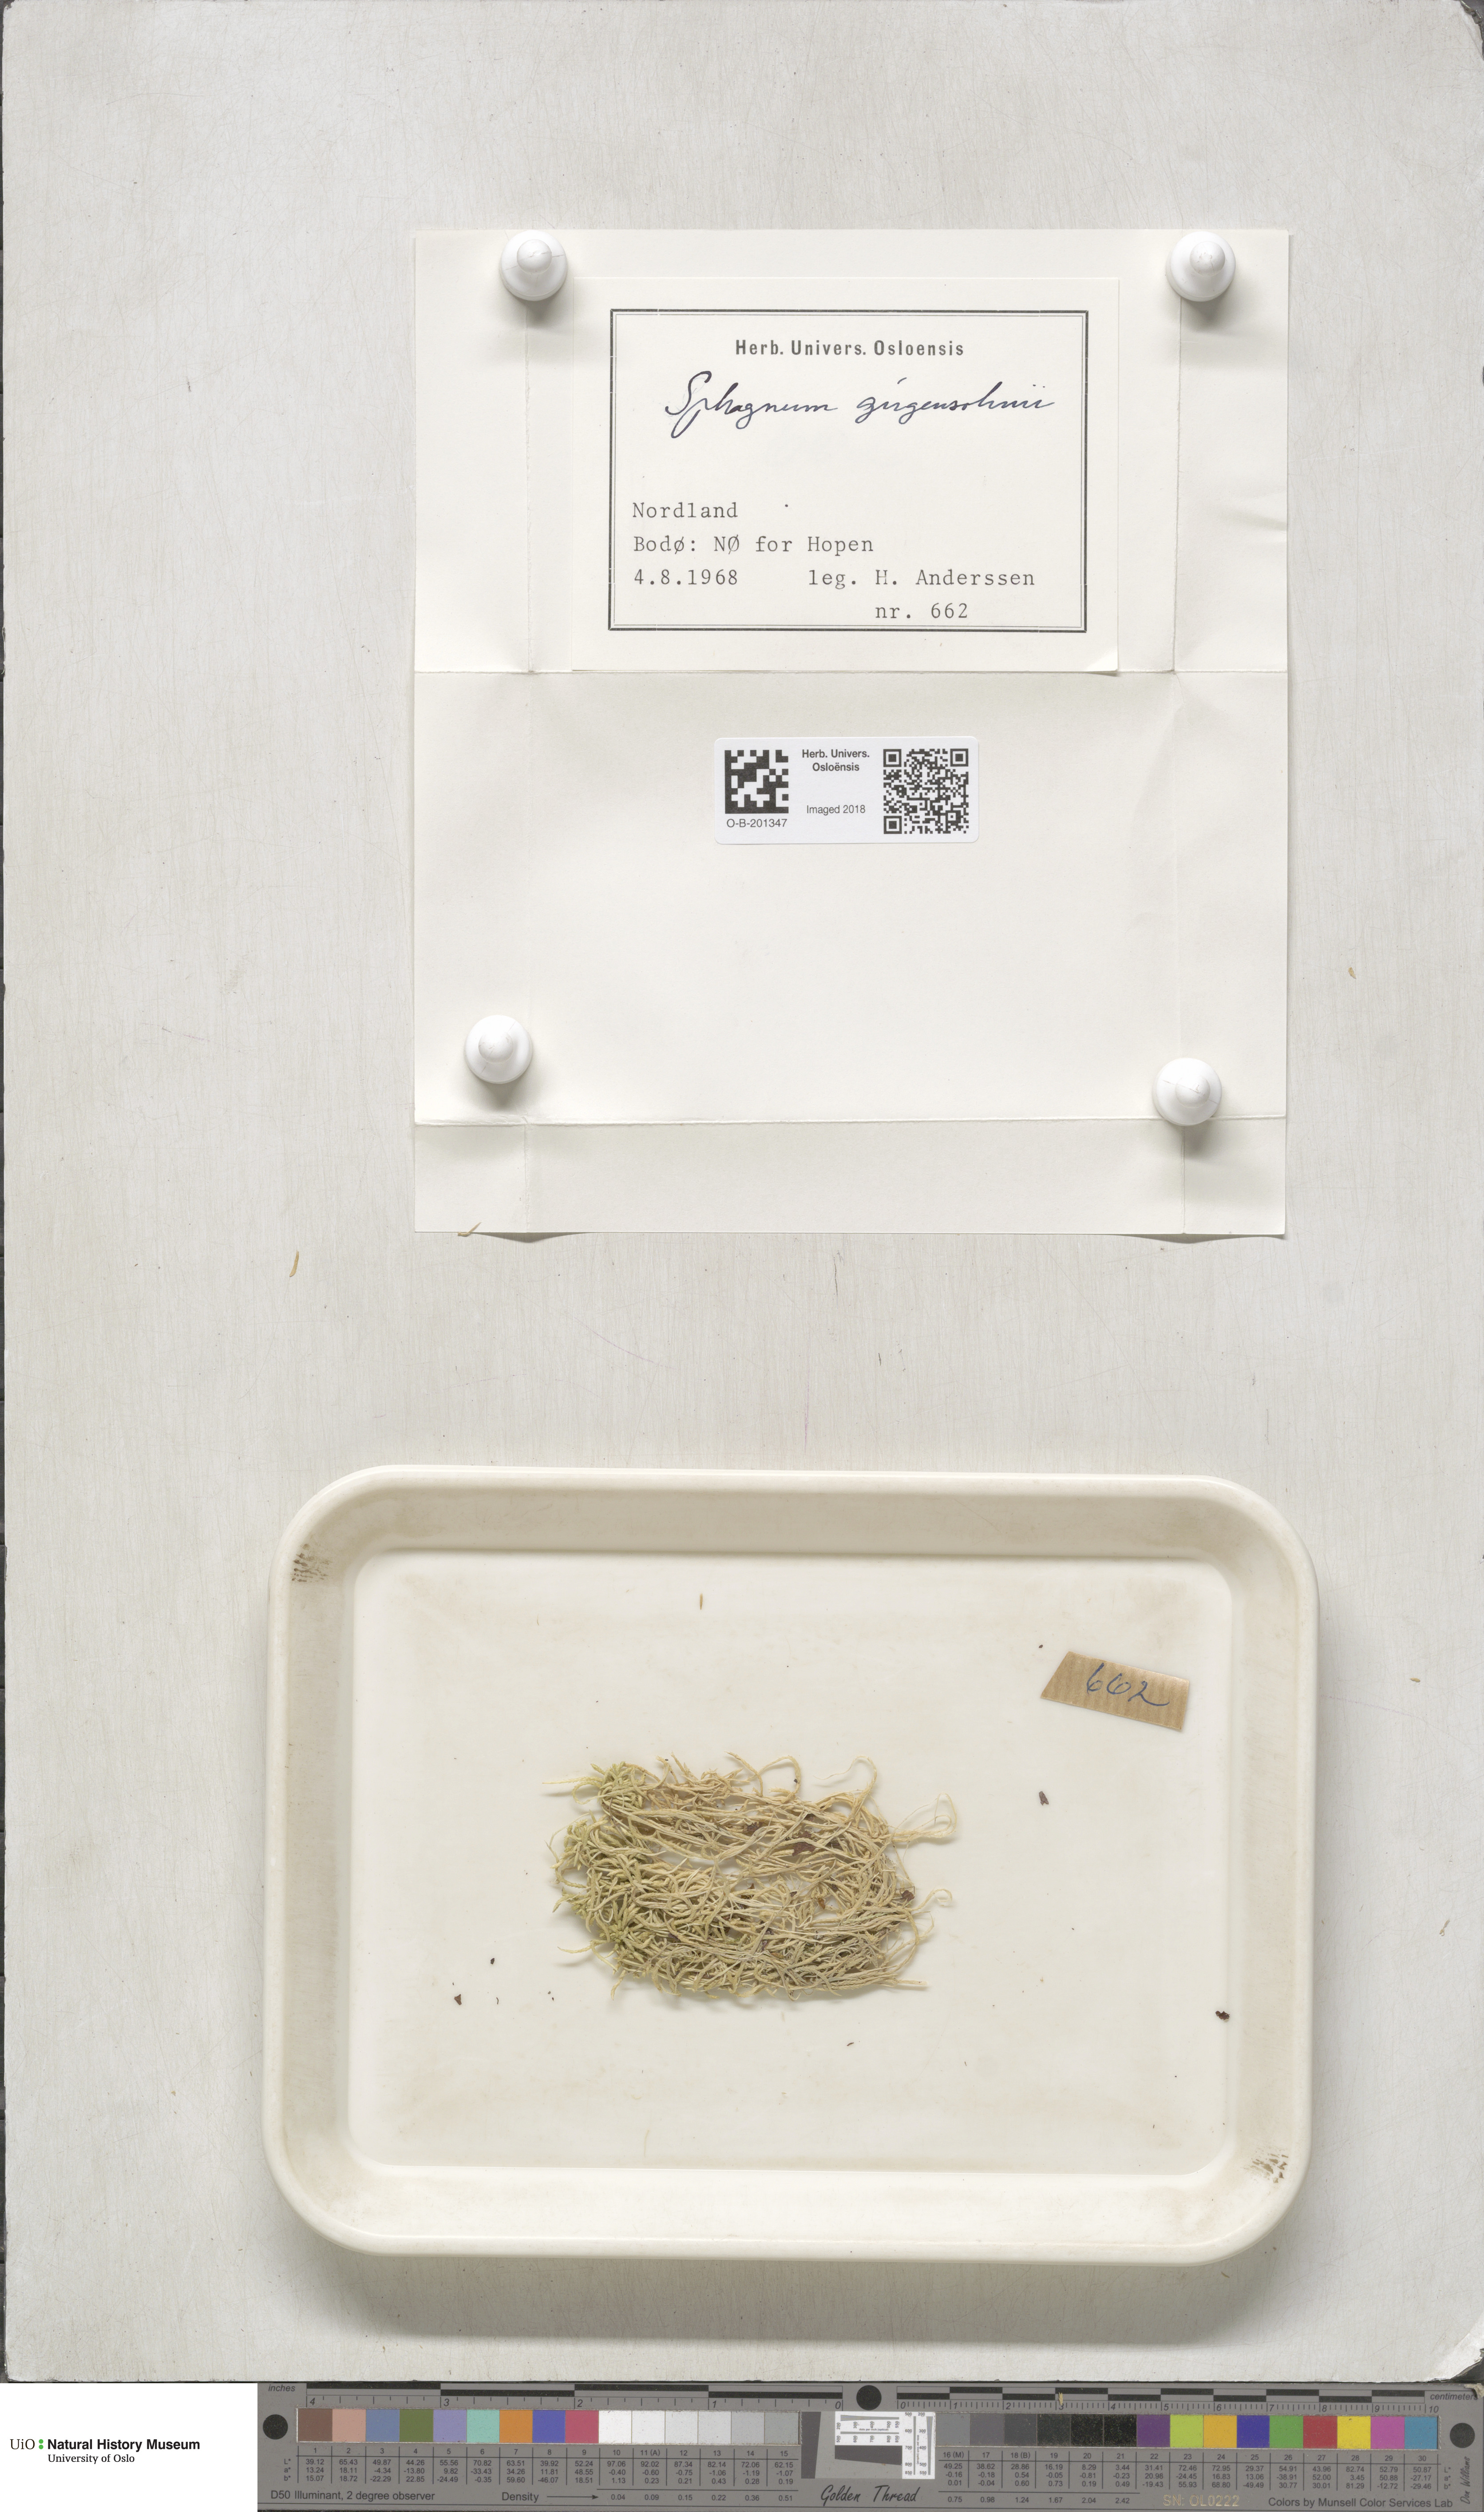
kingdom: Plantae
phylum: Bryophyta
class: Sphagnopsida
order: Sphagnales
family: Sphagnaceae
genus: Sphagnum
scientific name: Sphagnum girgensohnii
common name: Girgensohn's peat moss
